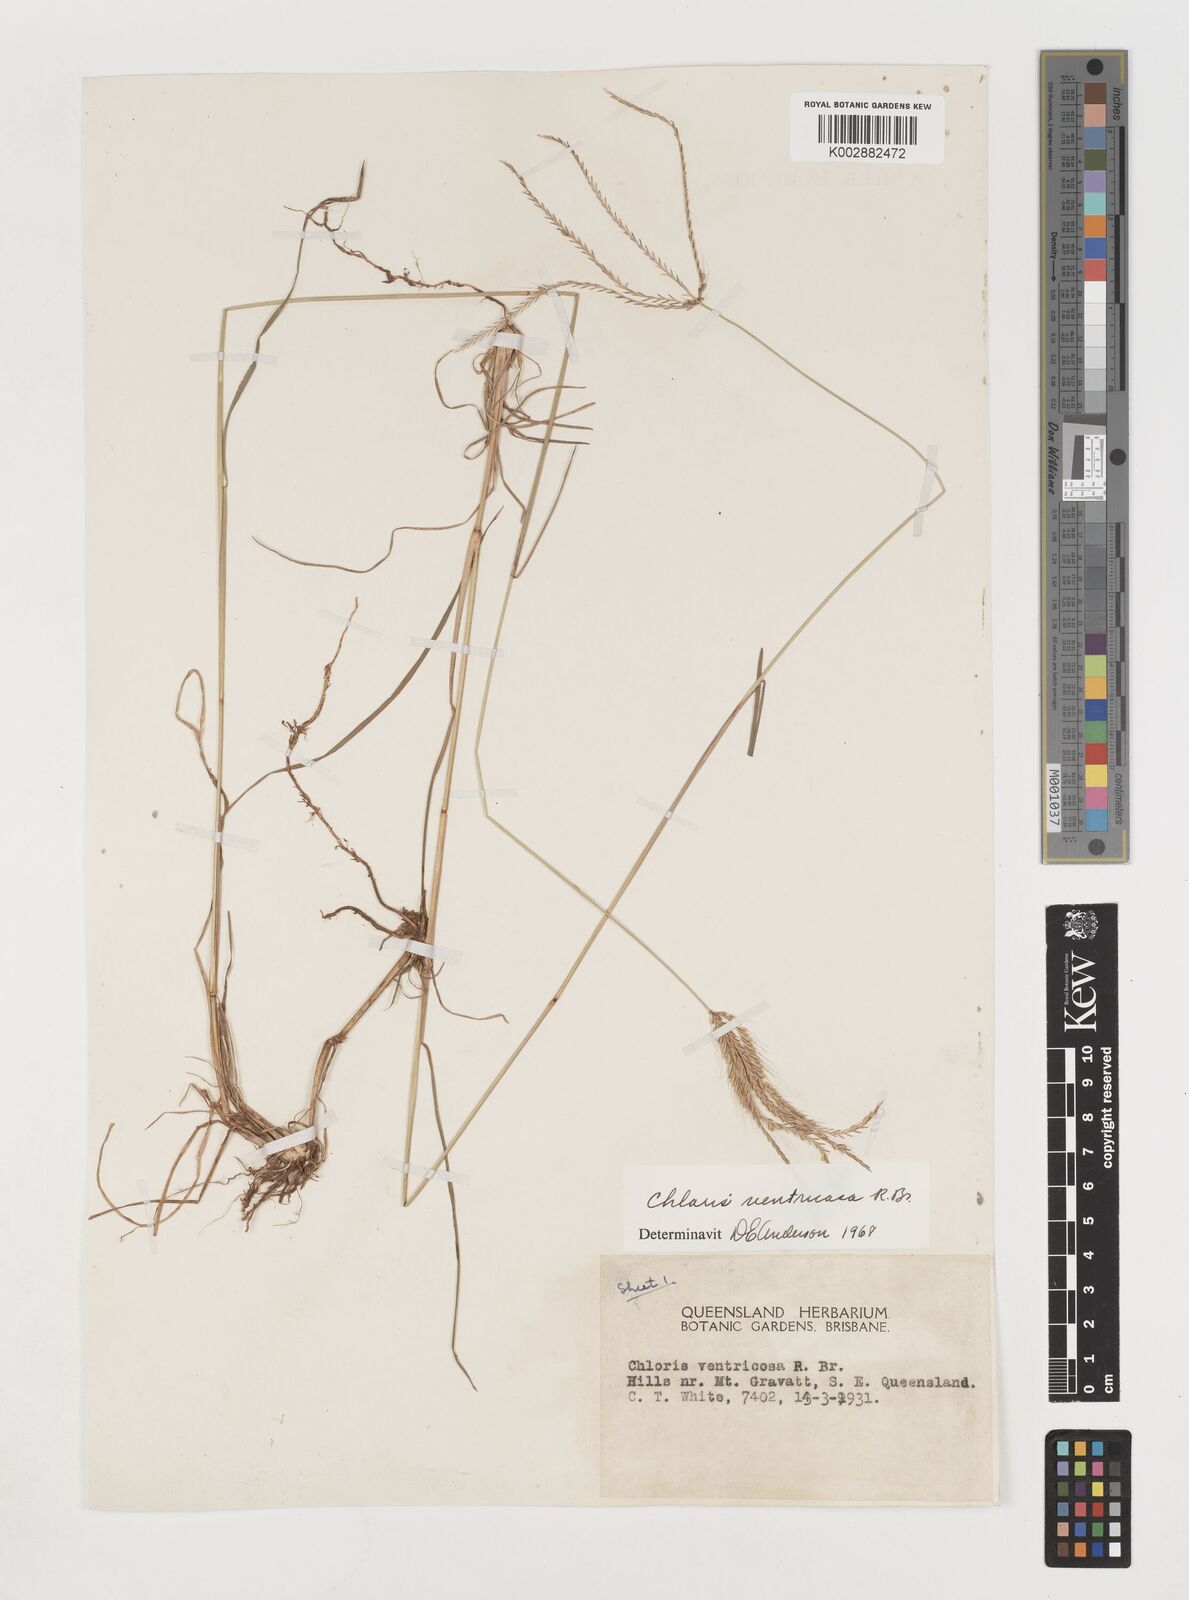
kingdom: Plantae
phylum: Tracheophyta
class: Liliopsida
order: Poales
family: Poaceae
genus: Chloris
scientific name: Chloris ventricosa
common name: Australian windmill grass
